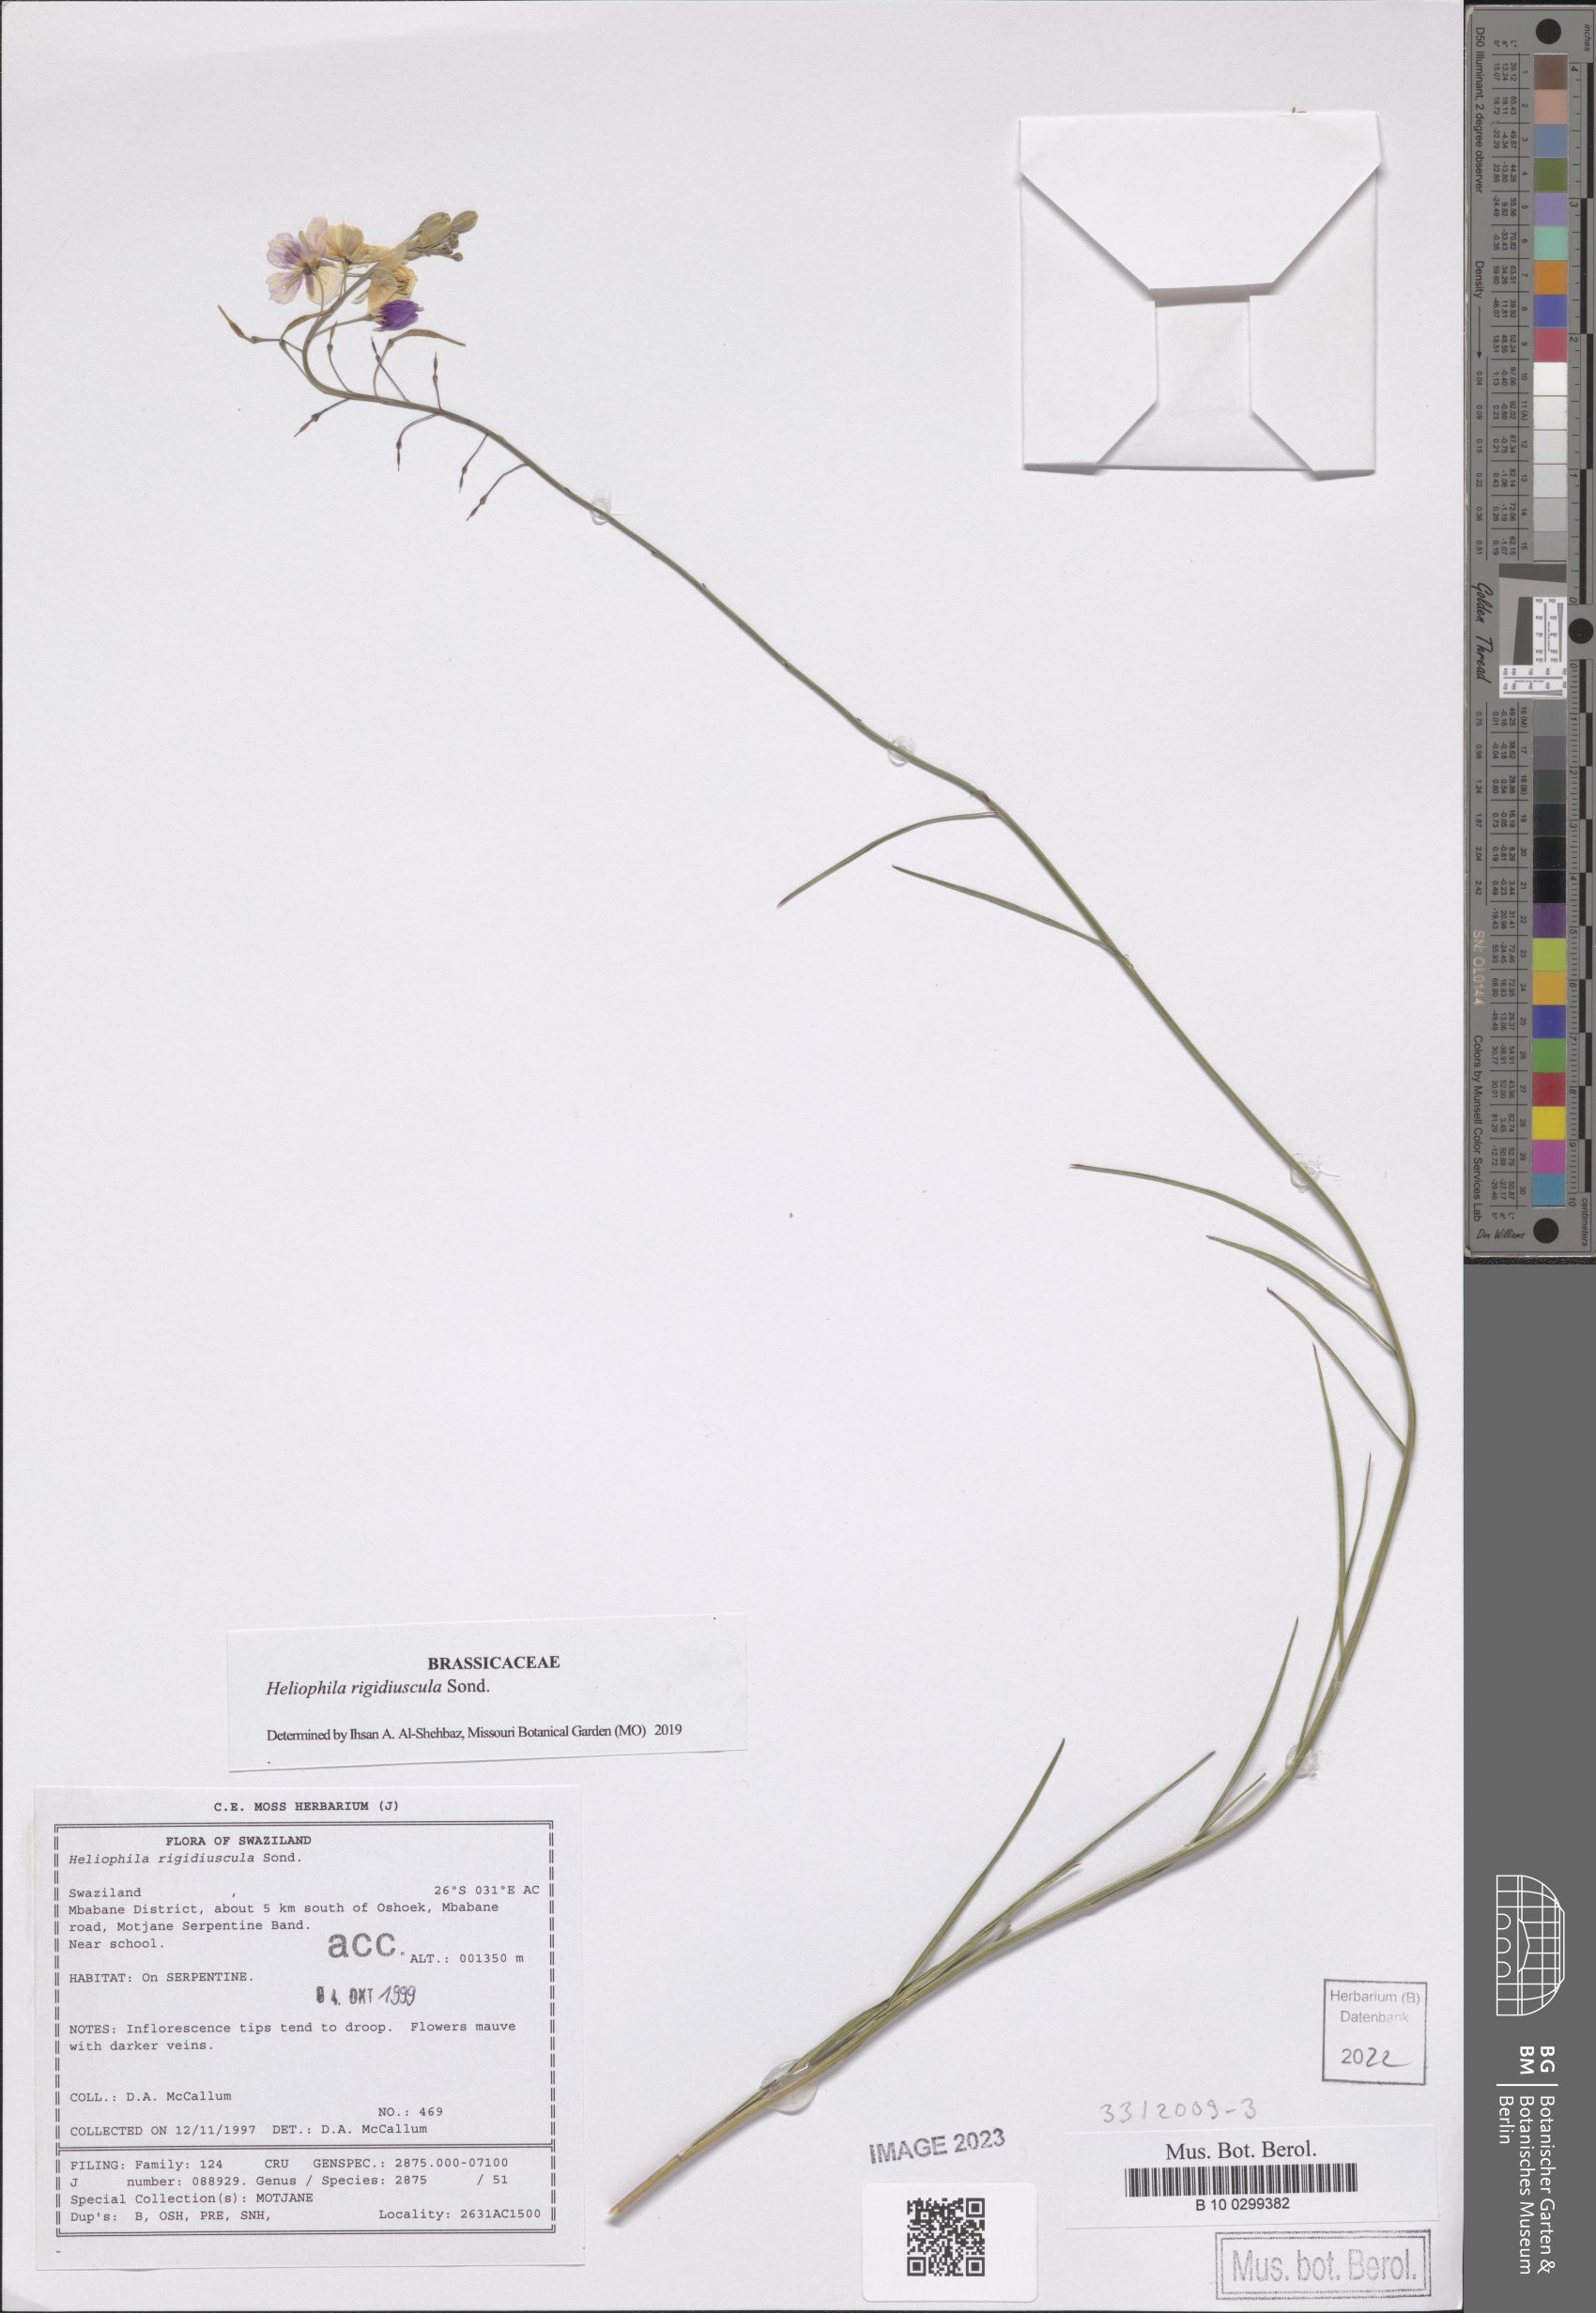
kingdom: Plantae
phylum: Tracheophyta
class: Magnoliopsida
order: Brassicales
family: Brassicaceae
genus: Heliophila
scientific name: Heliophila rigidiuscula
